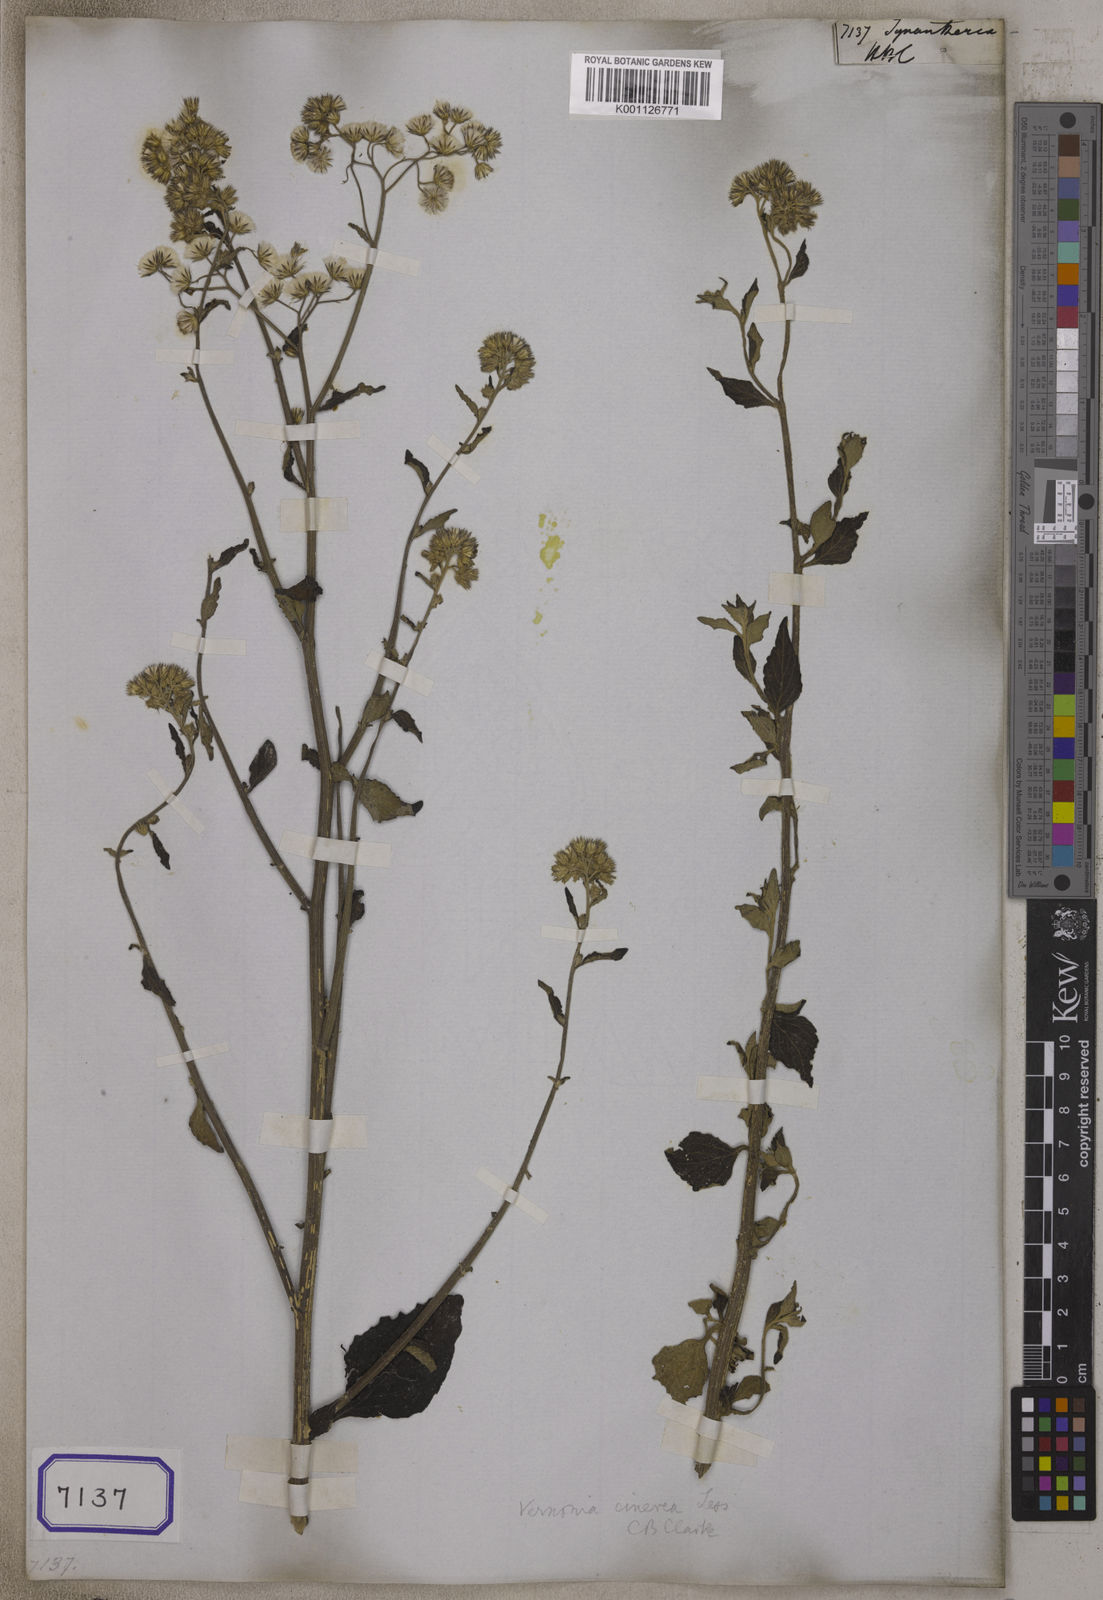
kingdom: Plantae
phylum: Tracheophyta
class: Magnoliopsida
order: Asterales
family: Asteraceae
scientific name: Asteraceae
